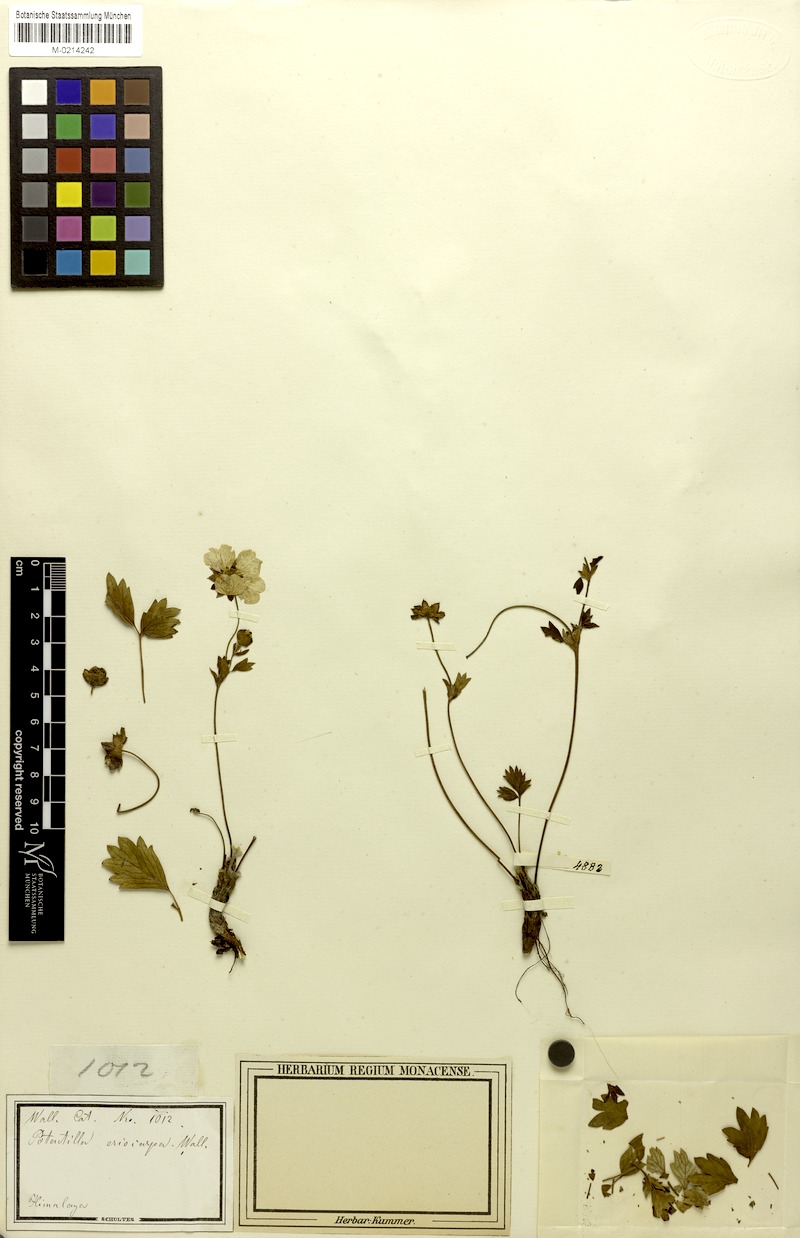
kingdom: Plantae
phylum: Tracheophyta
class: Magnoliopsida
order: Rosales
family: Rosaceae
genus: Potentilla
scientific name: Potentilla eriocarpa
